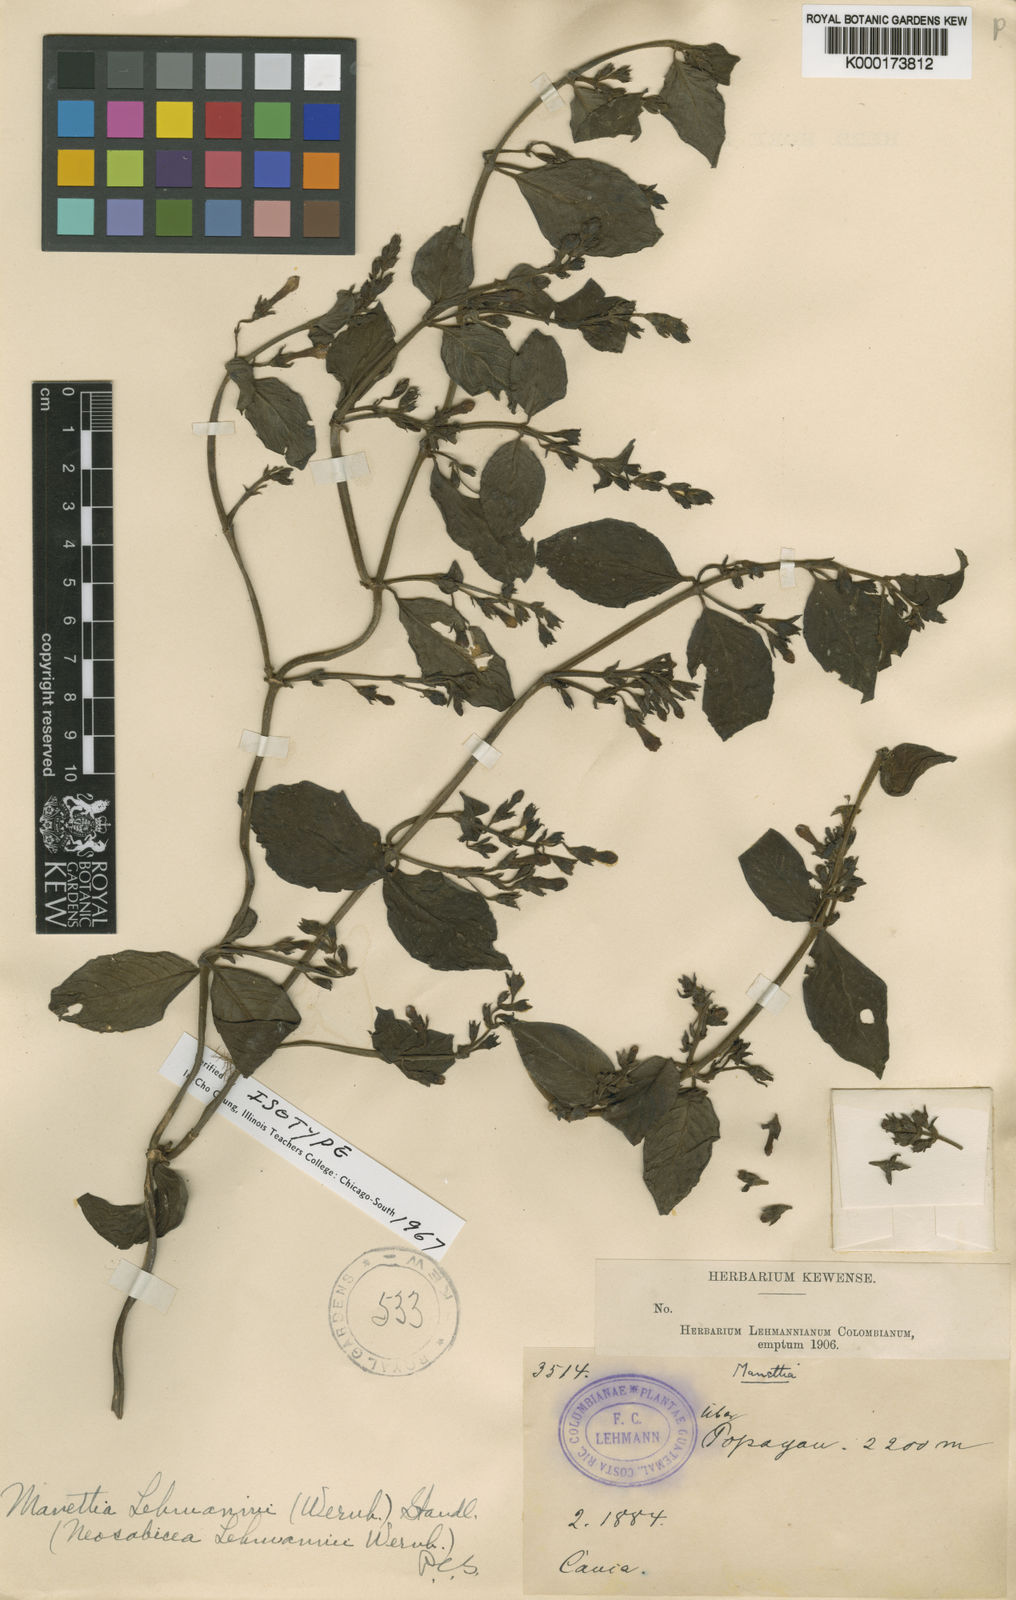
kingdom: Plantae
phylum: Tracheophyta
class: Magnoliopsida
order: Gentianales
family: Rubiaceae
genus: Manettia
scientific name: Manettia lehmannii
